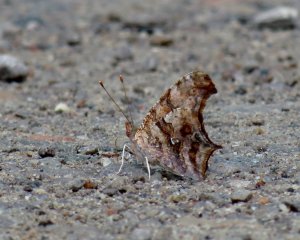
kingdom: Animalia
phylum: Arthropoda
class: Insecta
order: Lepidoptera
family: Nymphalidae
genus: Polygonia
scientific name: Polygonia interrogationis
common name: Question Mark
